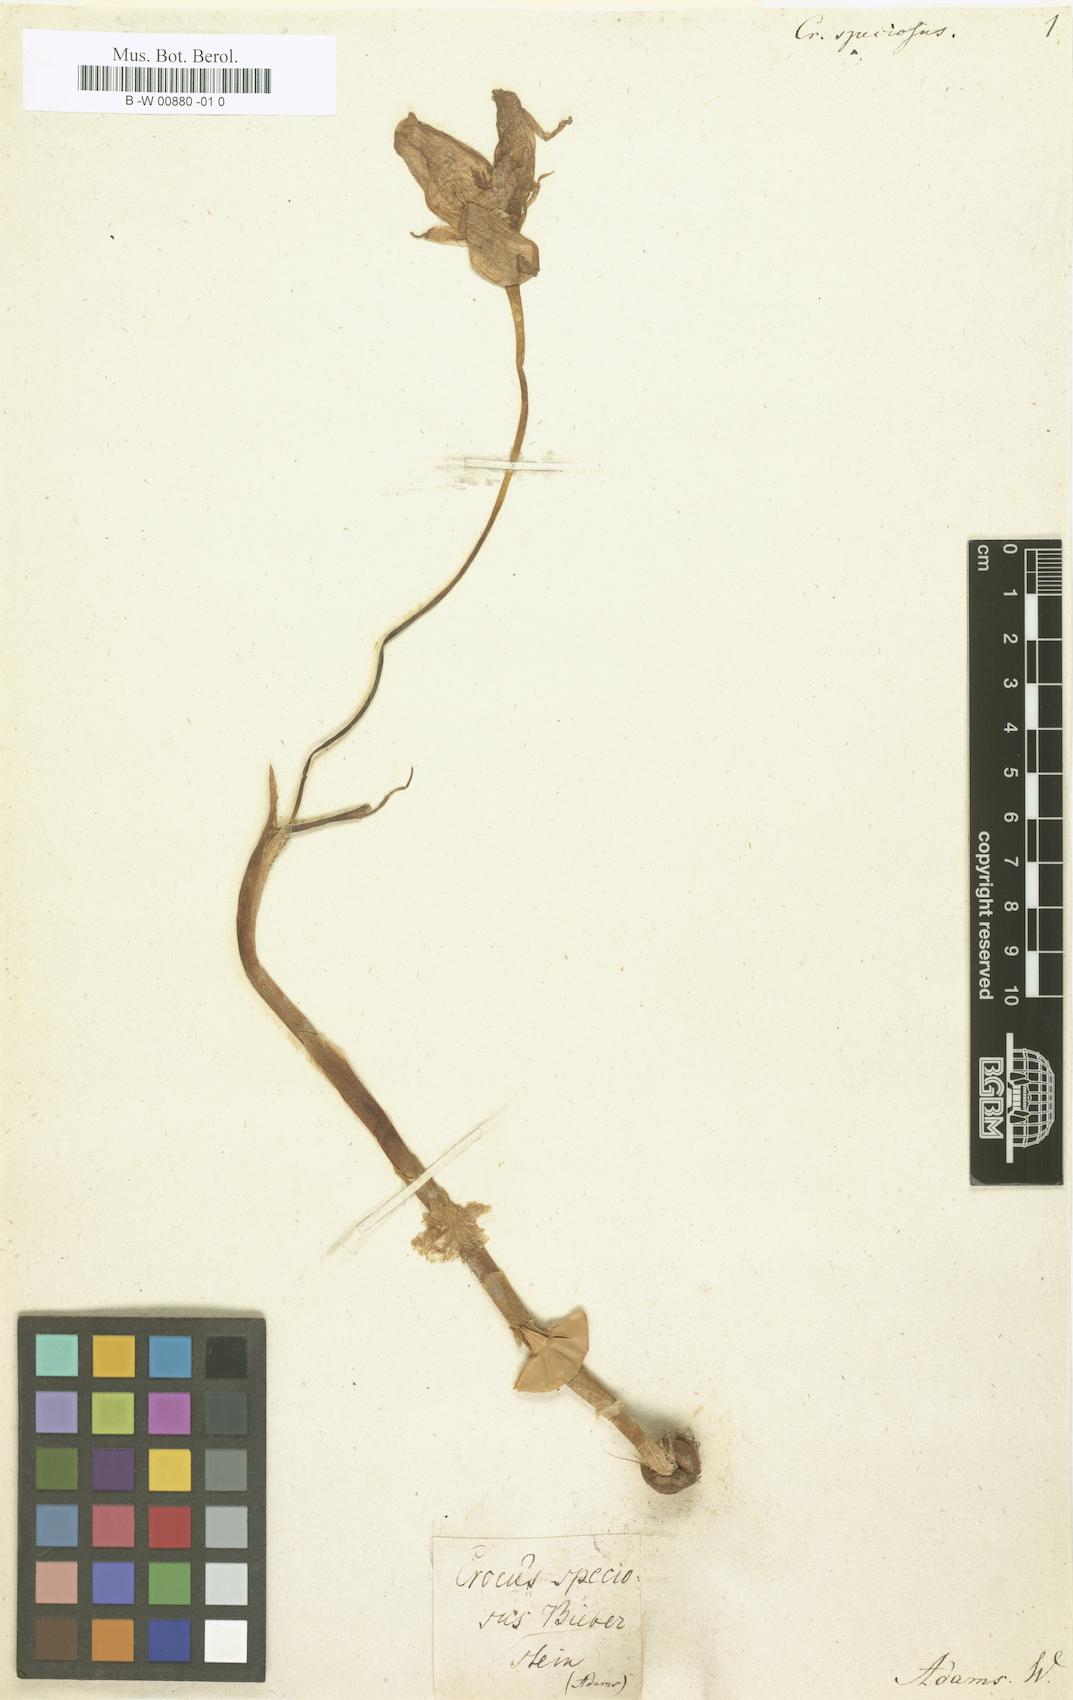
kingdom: Plantae
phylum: Tracheophyta
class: Liliopsida
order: Asparagales
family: Iridaceae
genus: Crocus
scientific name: Crocus speciosus
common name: Bieberstein's crocus
